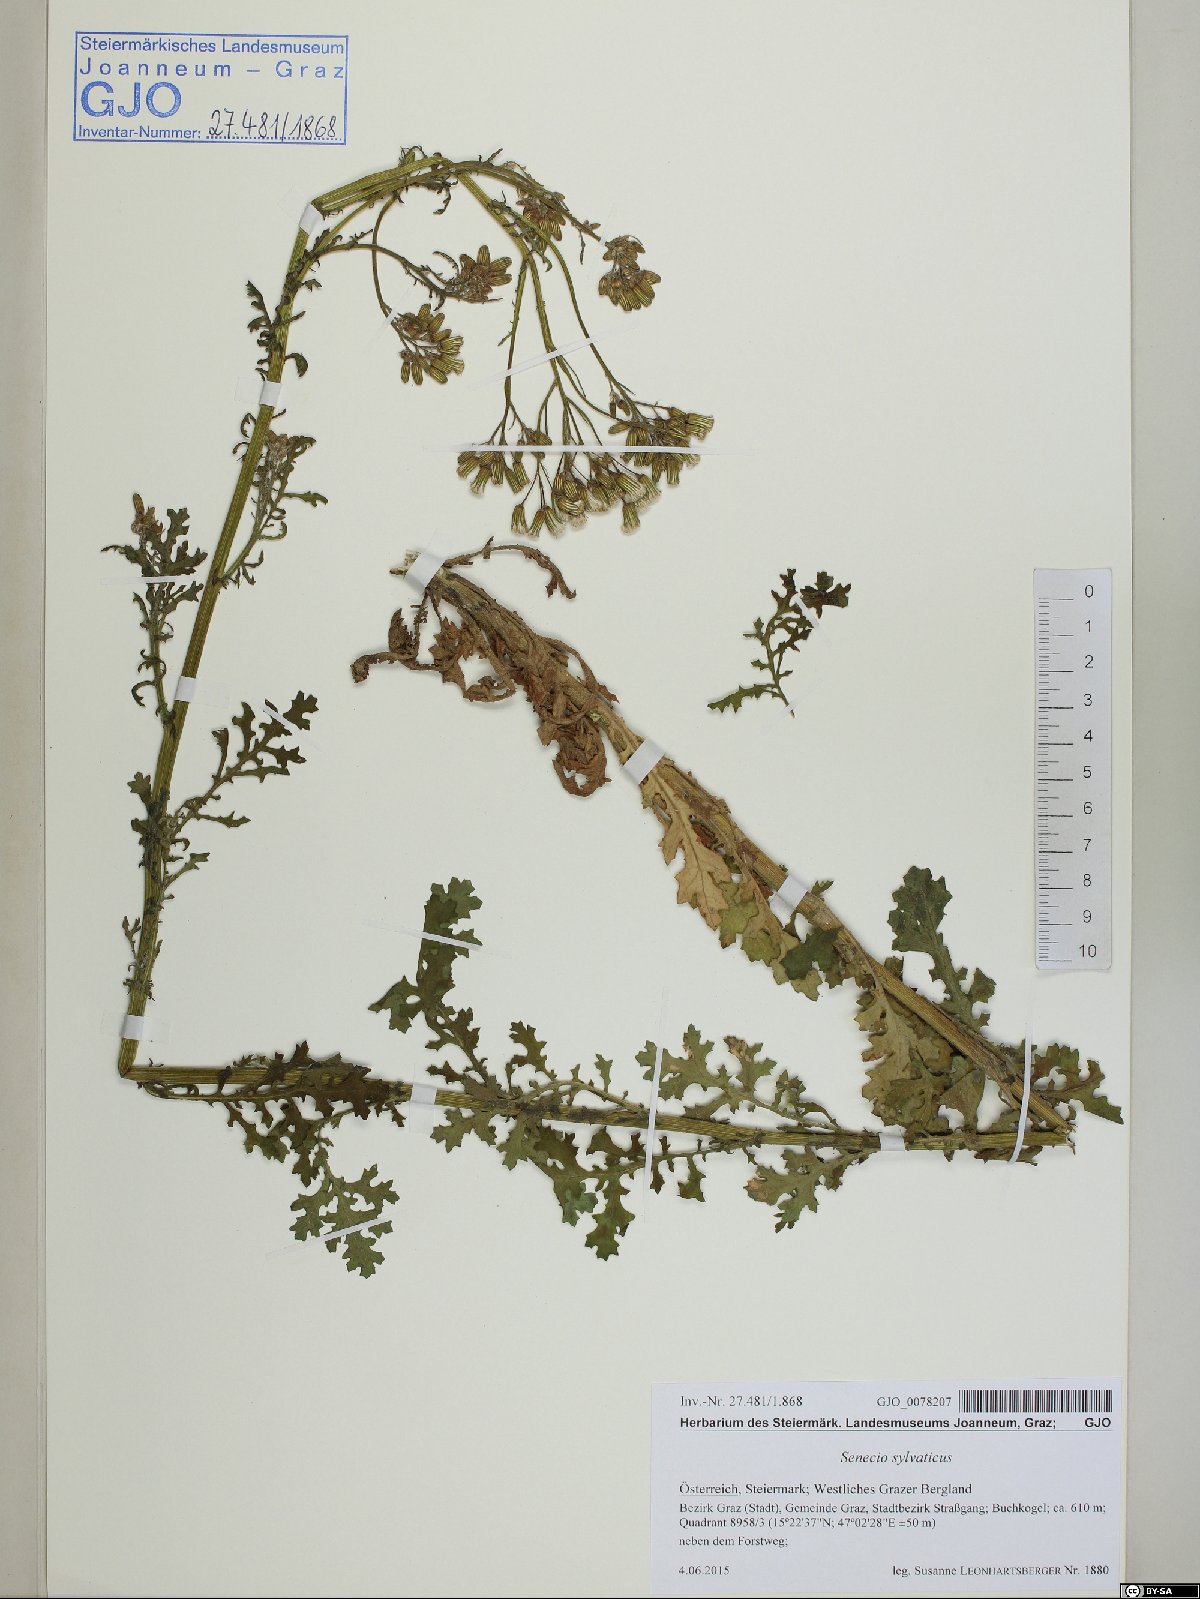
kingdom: Plantae
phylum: Tracheophyta
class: Magnoliopsida
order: Asterales
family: Asteraceae
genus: Senecio
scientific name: Senecio sylvaticus
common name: Woodland ragwort
